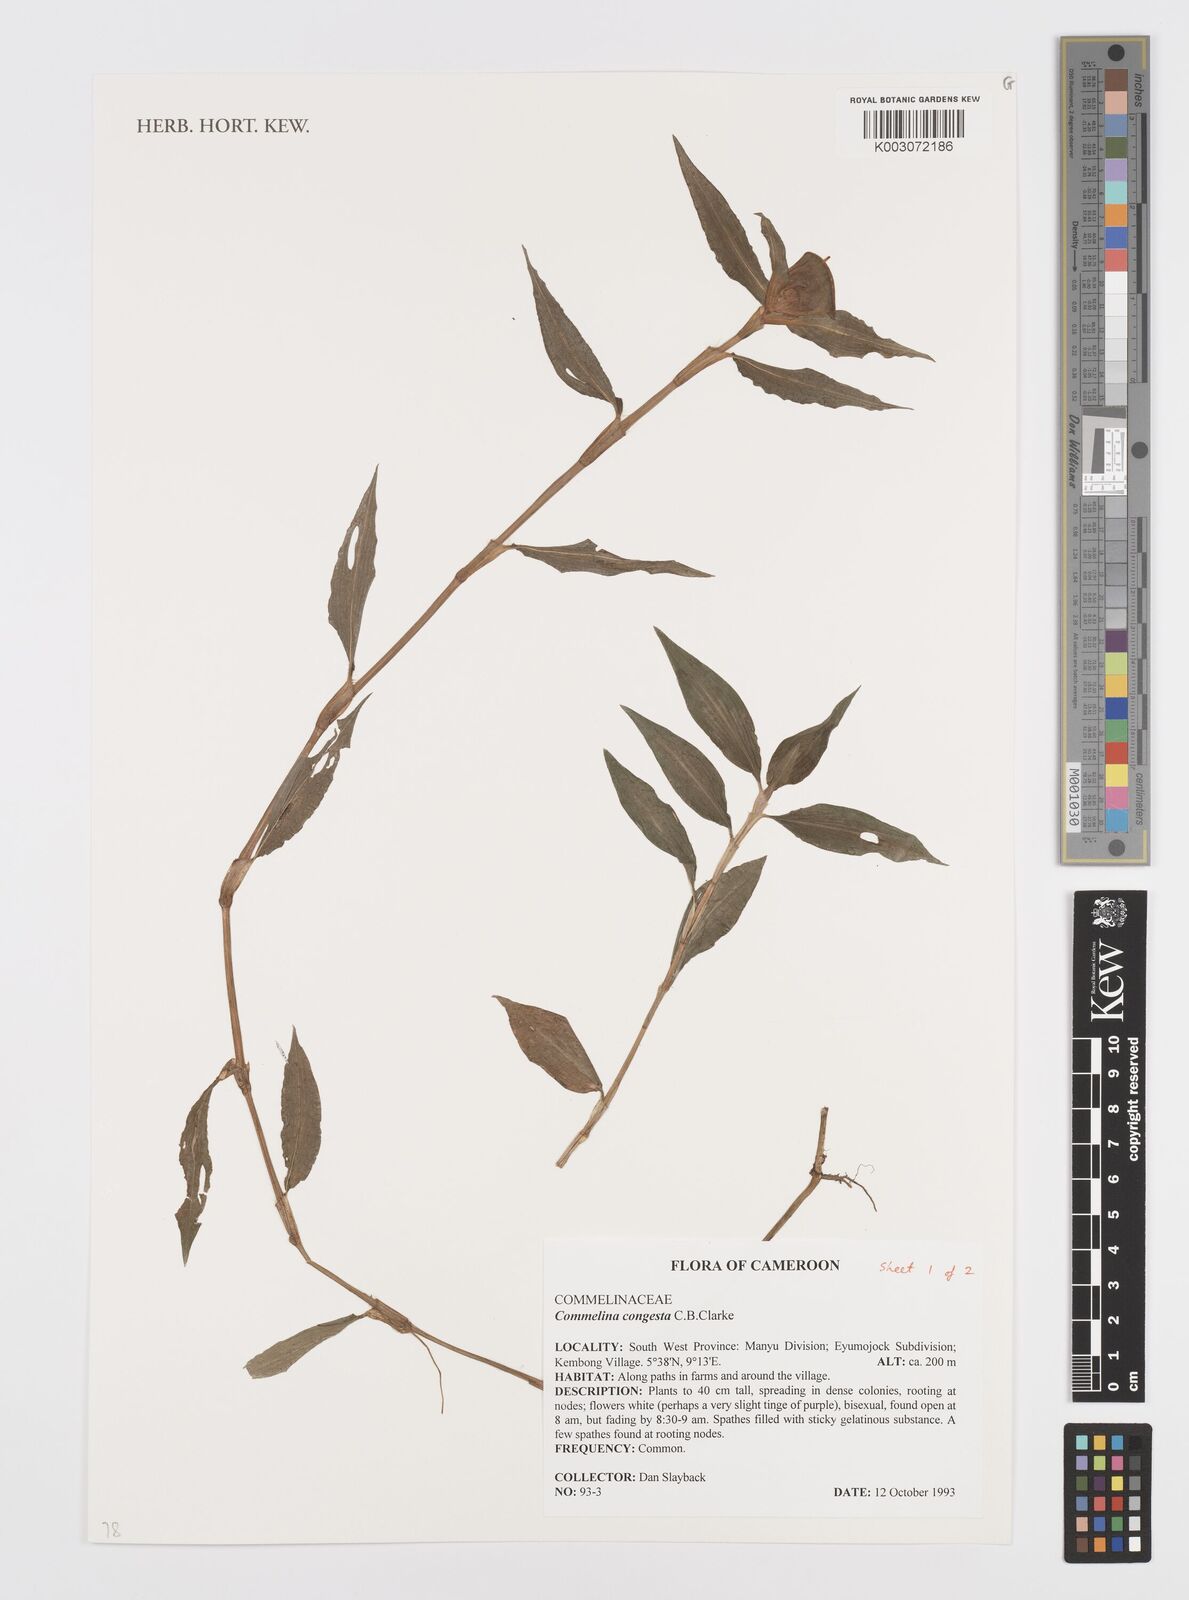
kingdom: Plantae
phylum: Tracheophyta
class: Liliopsida
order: Commelinales
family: Commelinaceae
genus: Commelina
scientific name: Commelina congesta
